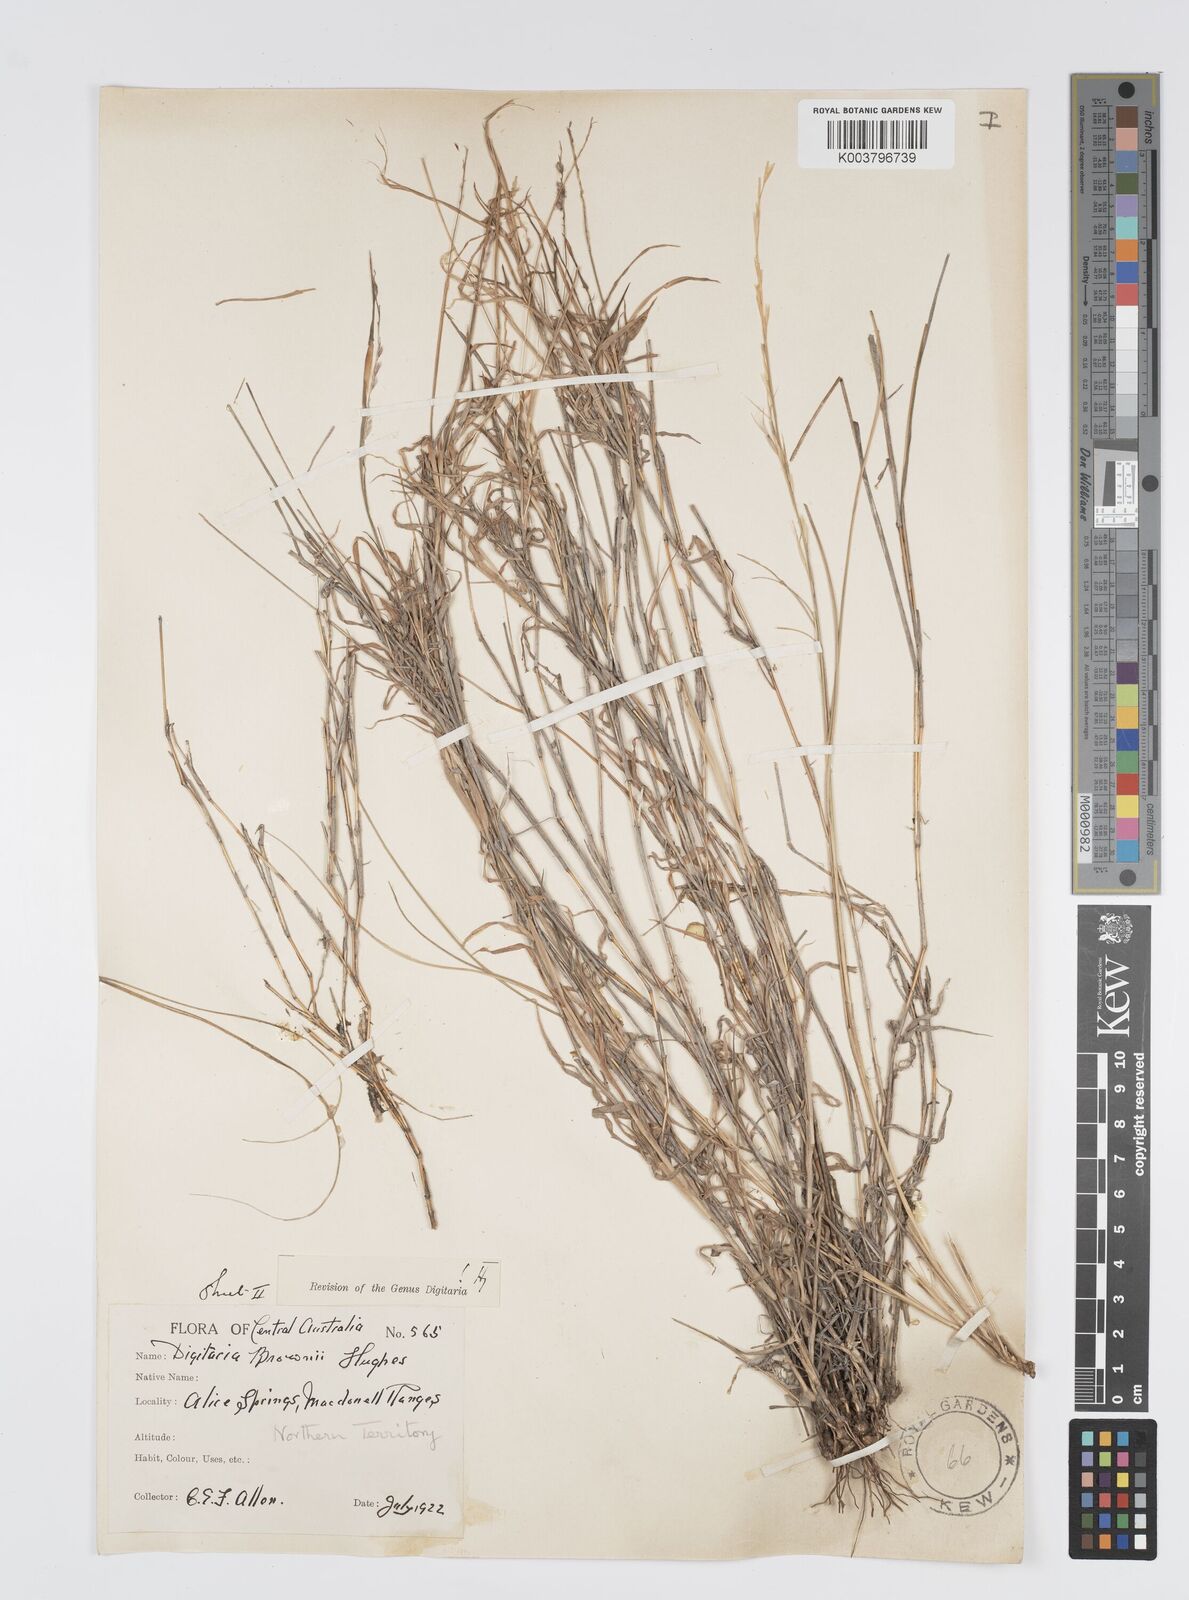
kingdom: Plantae
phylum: Tracheophyta
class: Liliopsida
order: Poales
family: Poaceae
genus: Digitaria
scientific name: Digitaria brownii
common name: Cotton grass
